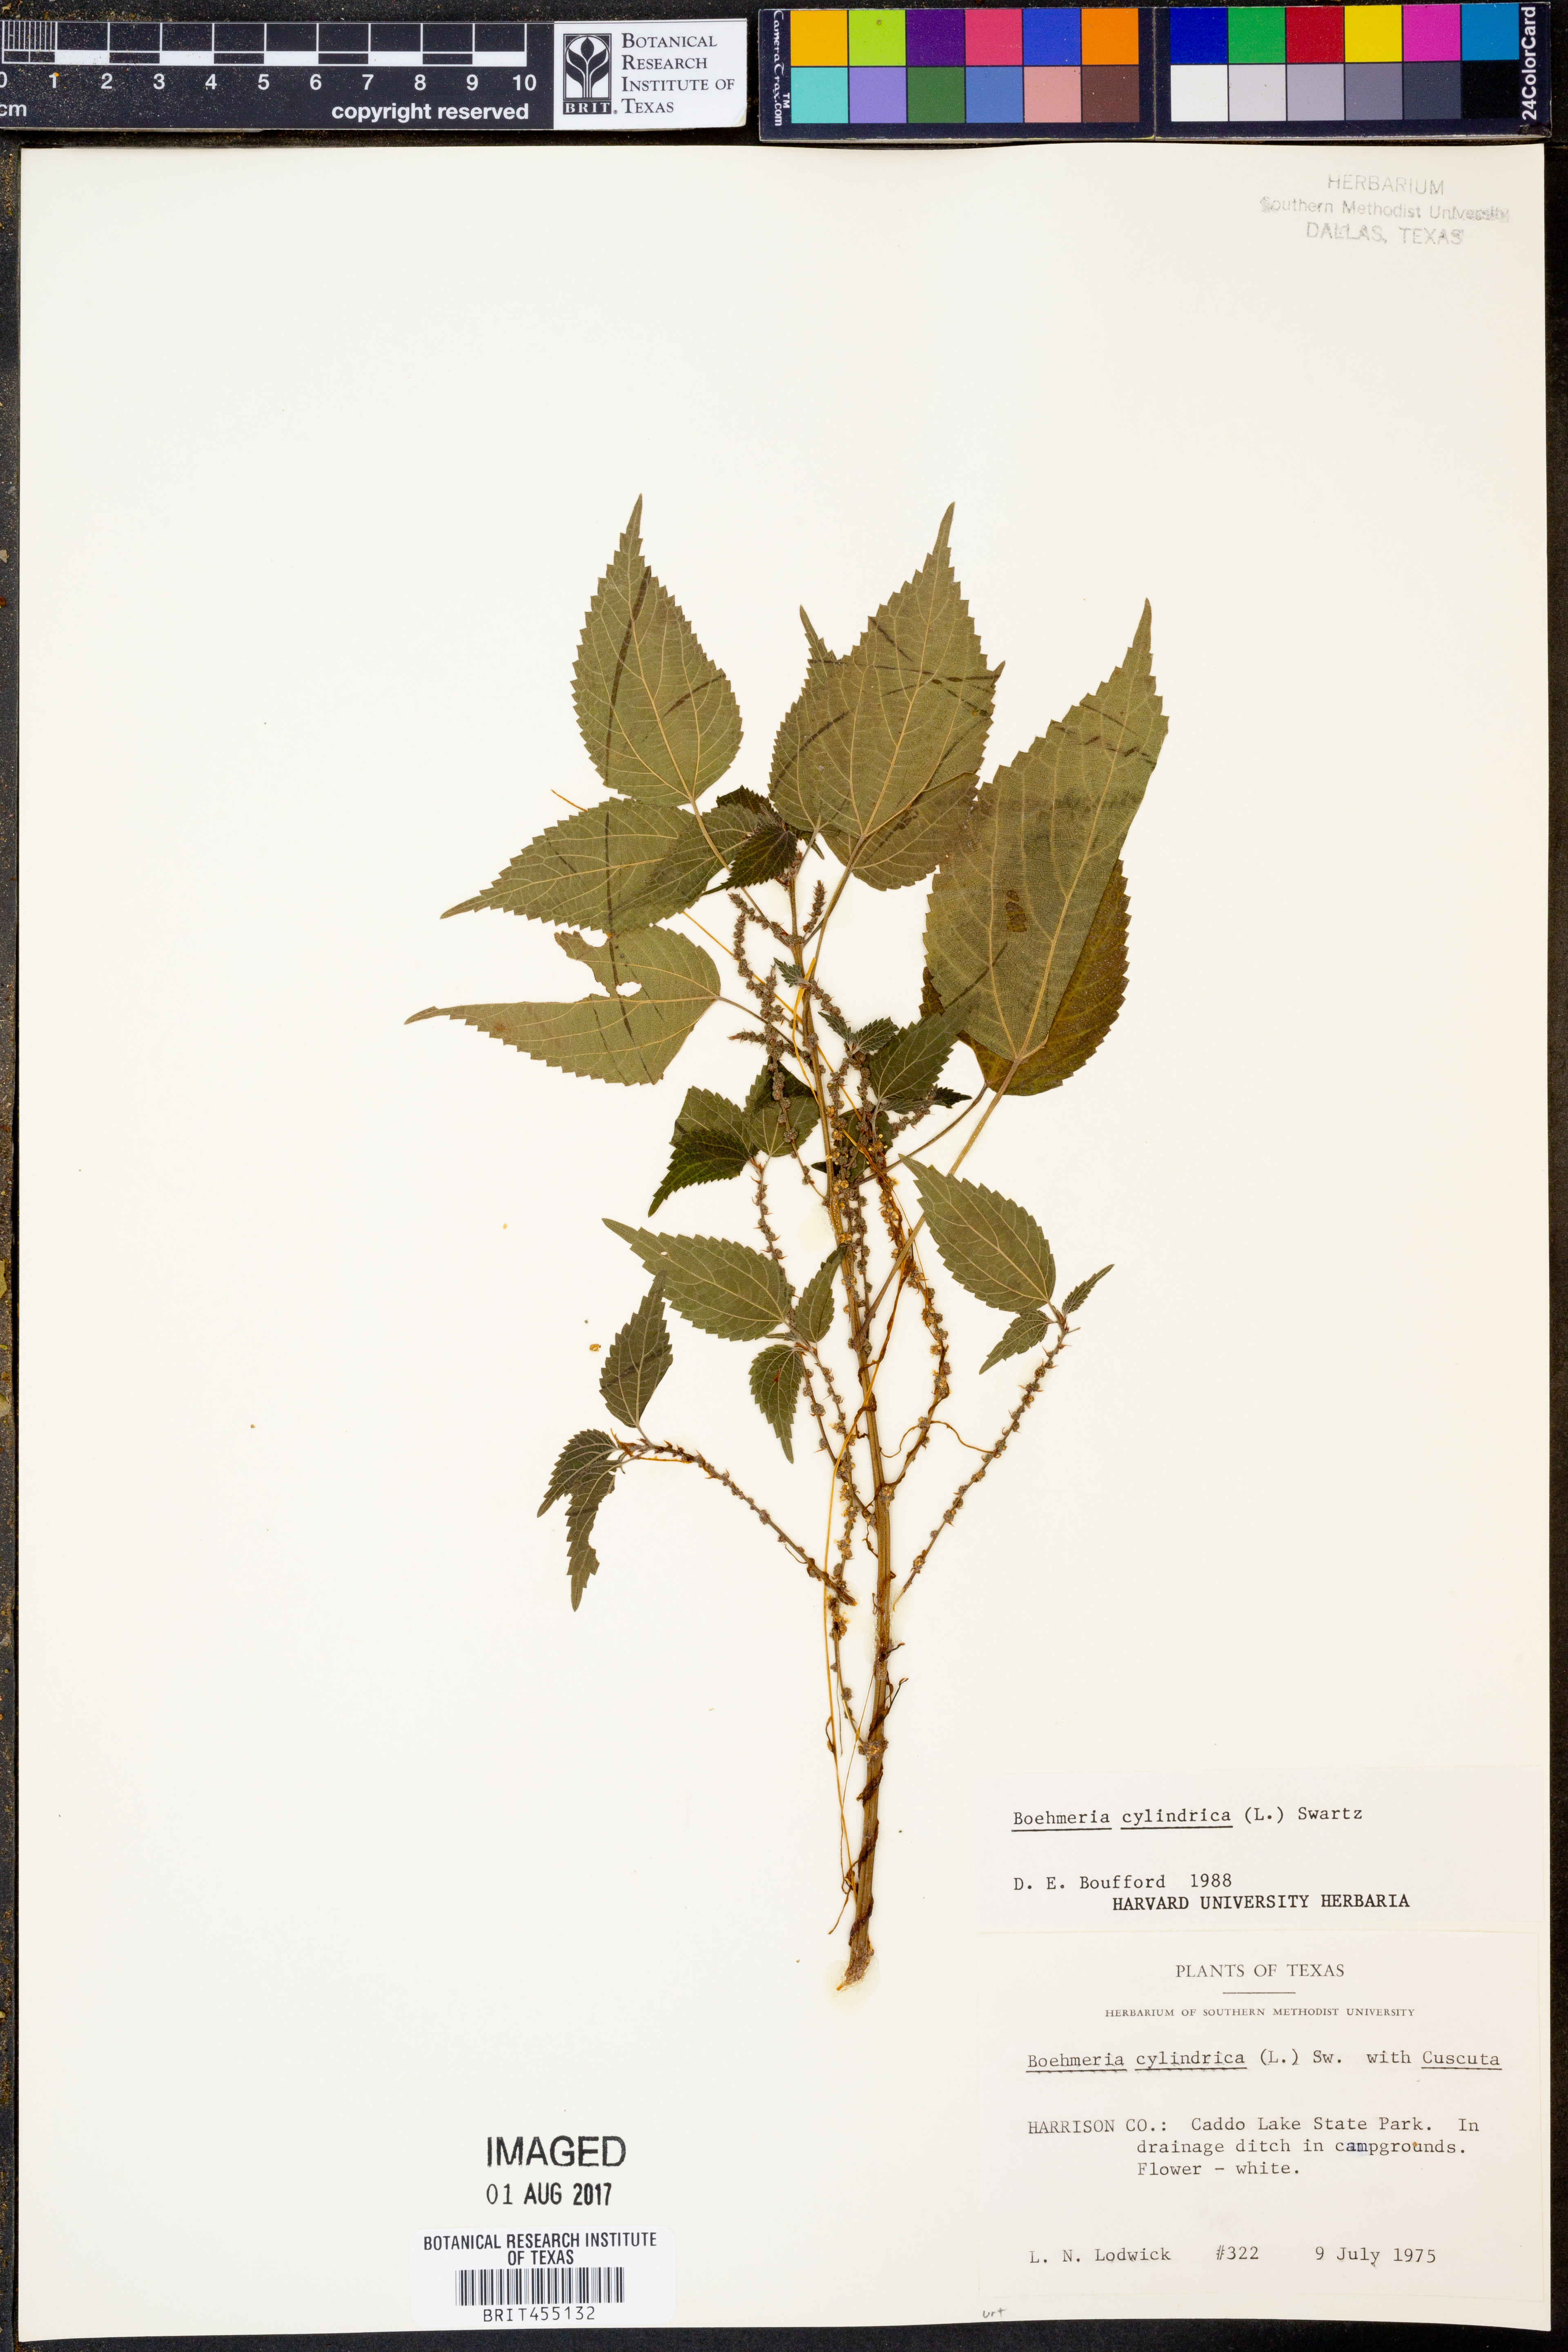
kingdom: Plantae
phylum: Tracheophyta
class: Magnoliopsida
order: Rosales
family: Urticaceae
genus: Boehmeria
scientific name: Boehmeria cylindrica
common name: Bog-hemp
